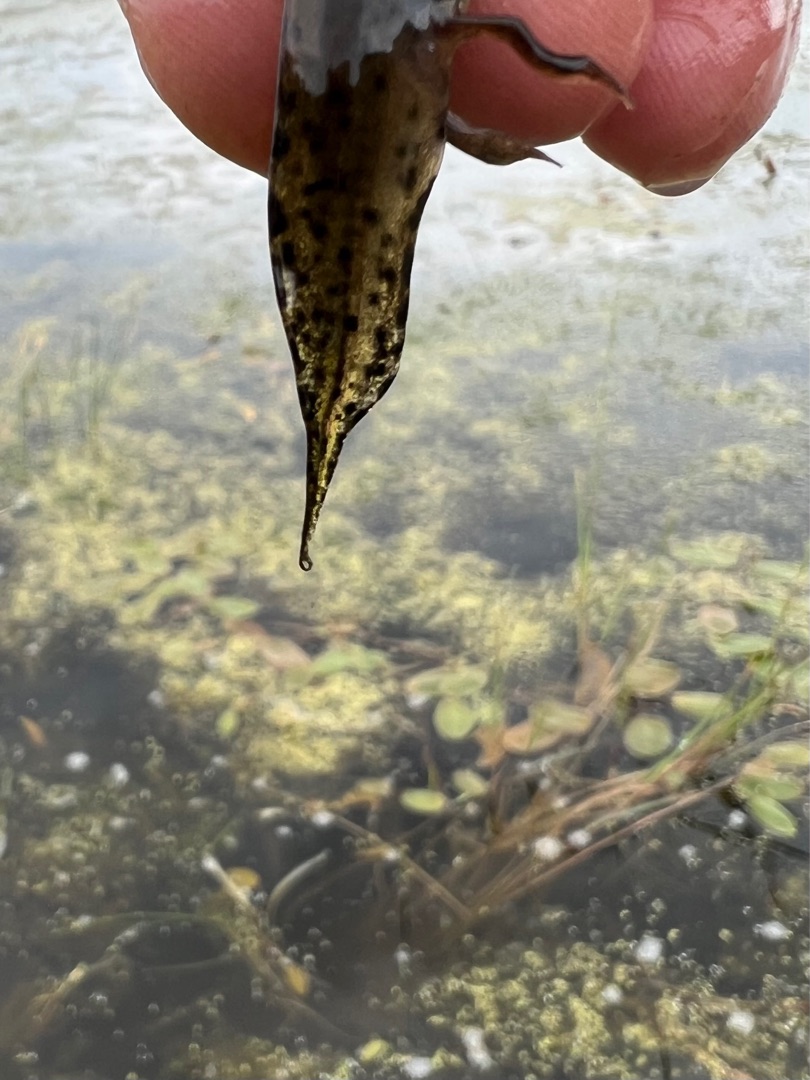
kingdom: Animalia
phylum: Chordata
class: Amphibia
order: Caudata
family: Salamandridae
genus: Triturus
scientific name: Triturus cristatus
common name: Stor vandsalamander
